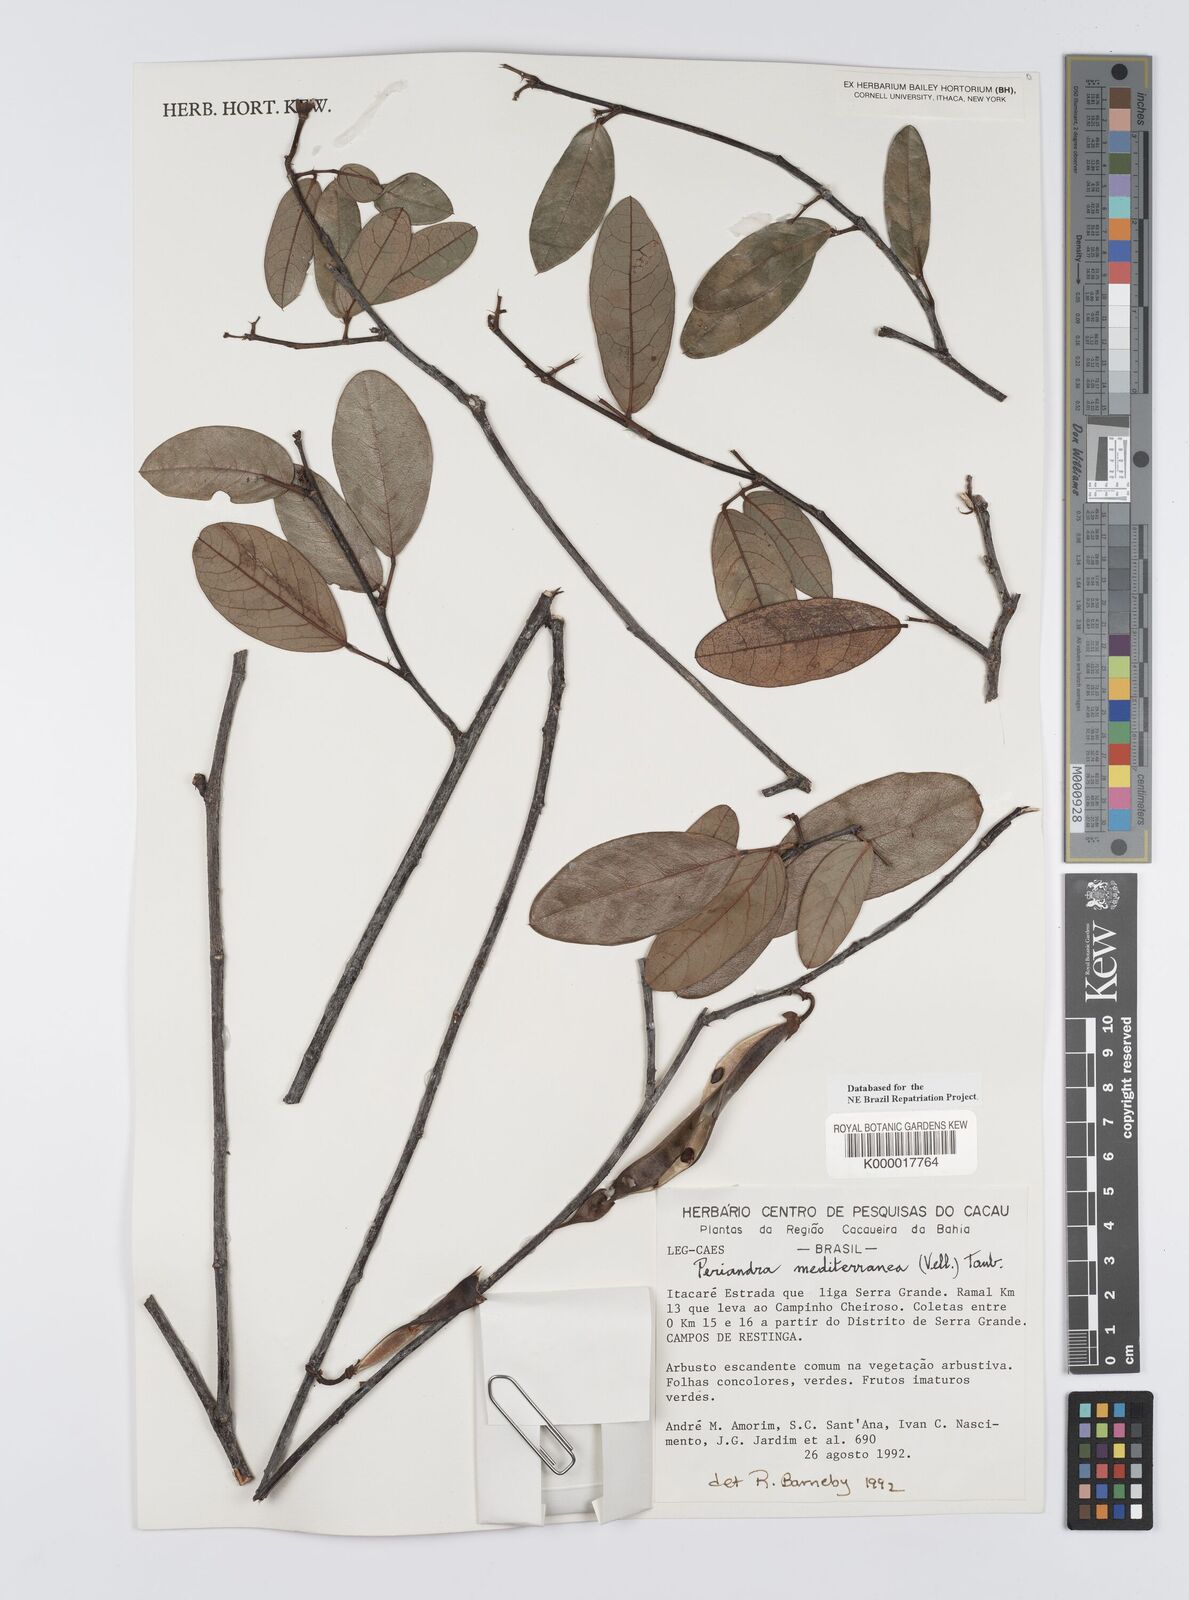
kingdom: Plantae
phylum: Tracheophyta
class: Magnoliopsida
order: Fabales
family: Fabaceae
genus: Periandra
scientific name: Periandra mediterranea
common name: Brazilian licorice
